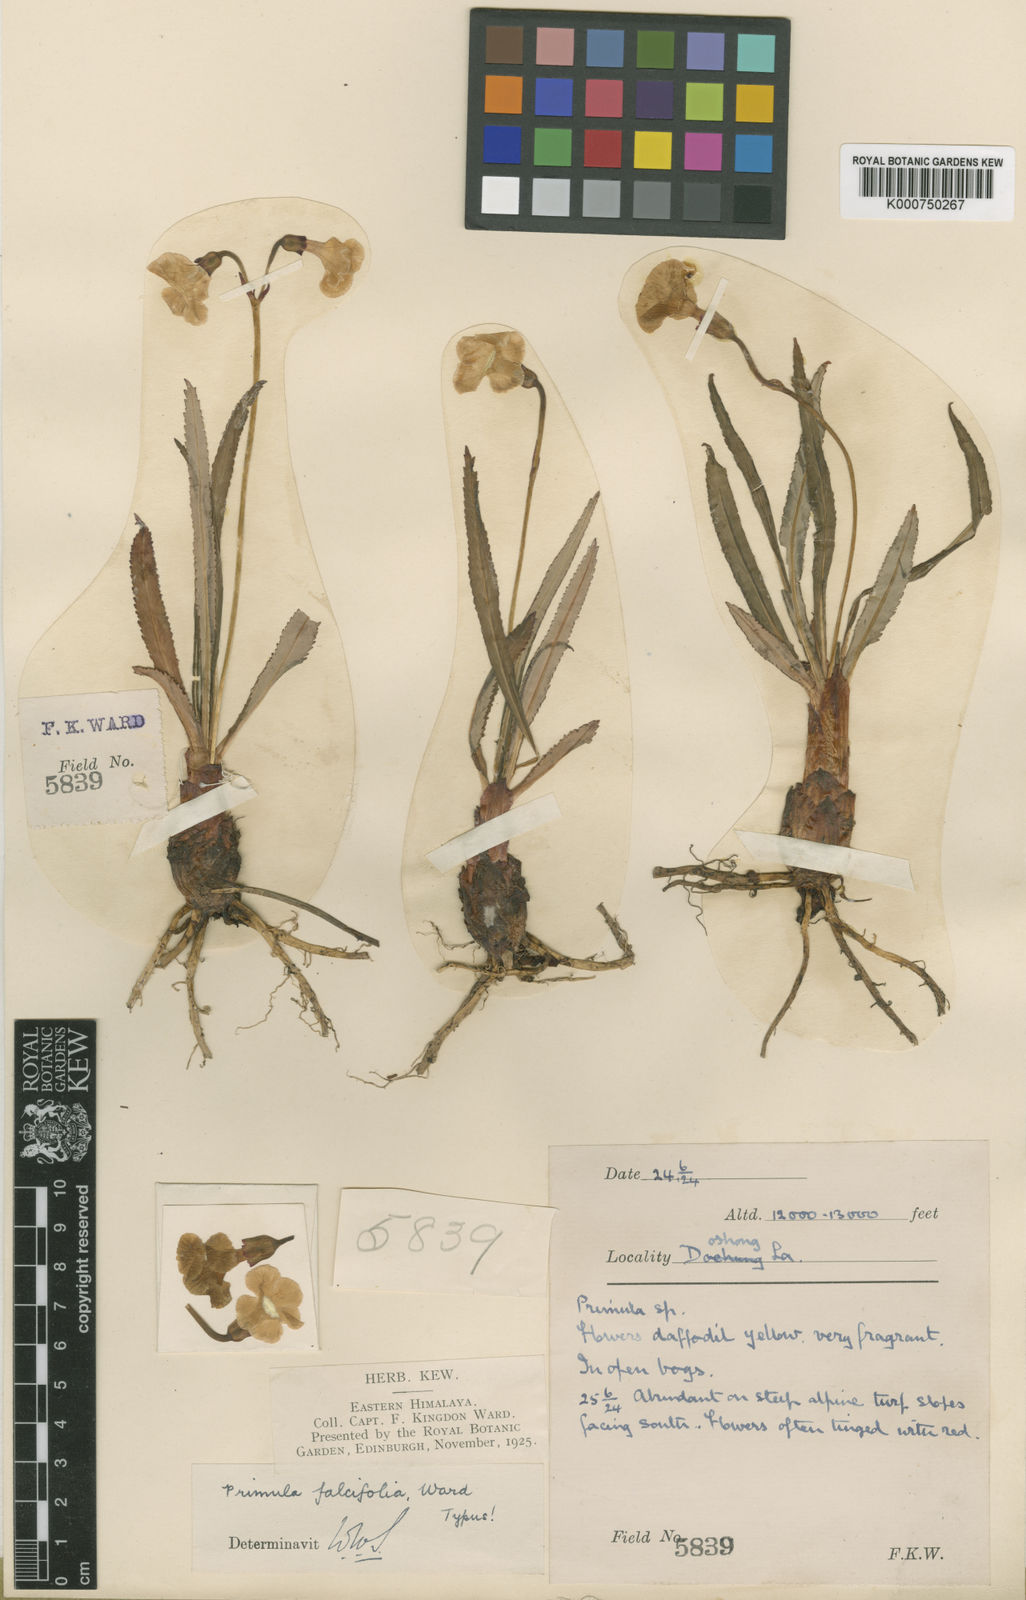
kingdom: Plantae
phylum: Tracheophyta
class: Magnoliopsida
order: Ericales
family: Primulaceae
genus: Primula
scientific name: Primula falcifolia
